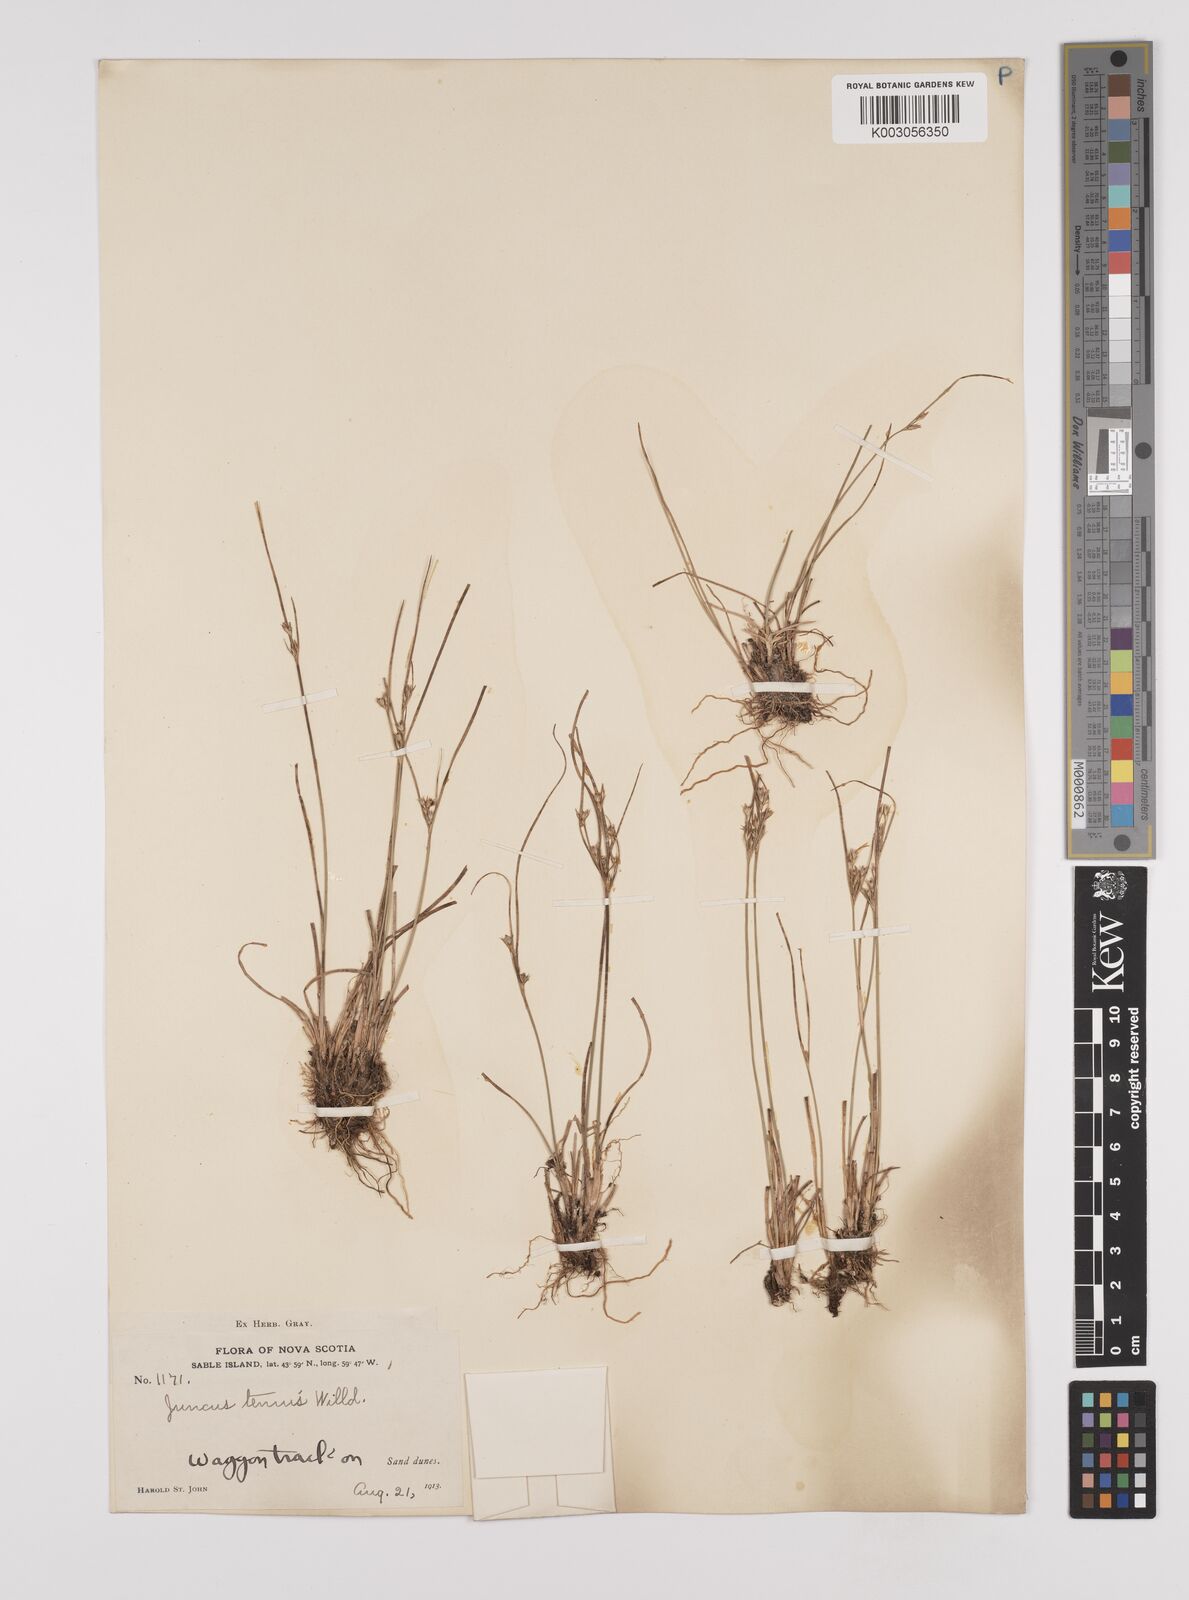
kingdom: Plantae
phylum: Tracheophyta
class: Liliopsida
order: Poales
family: Juncaceae
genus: Juncus
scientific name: Juncus tenuis
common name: Slender rush
